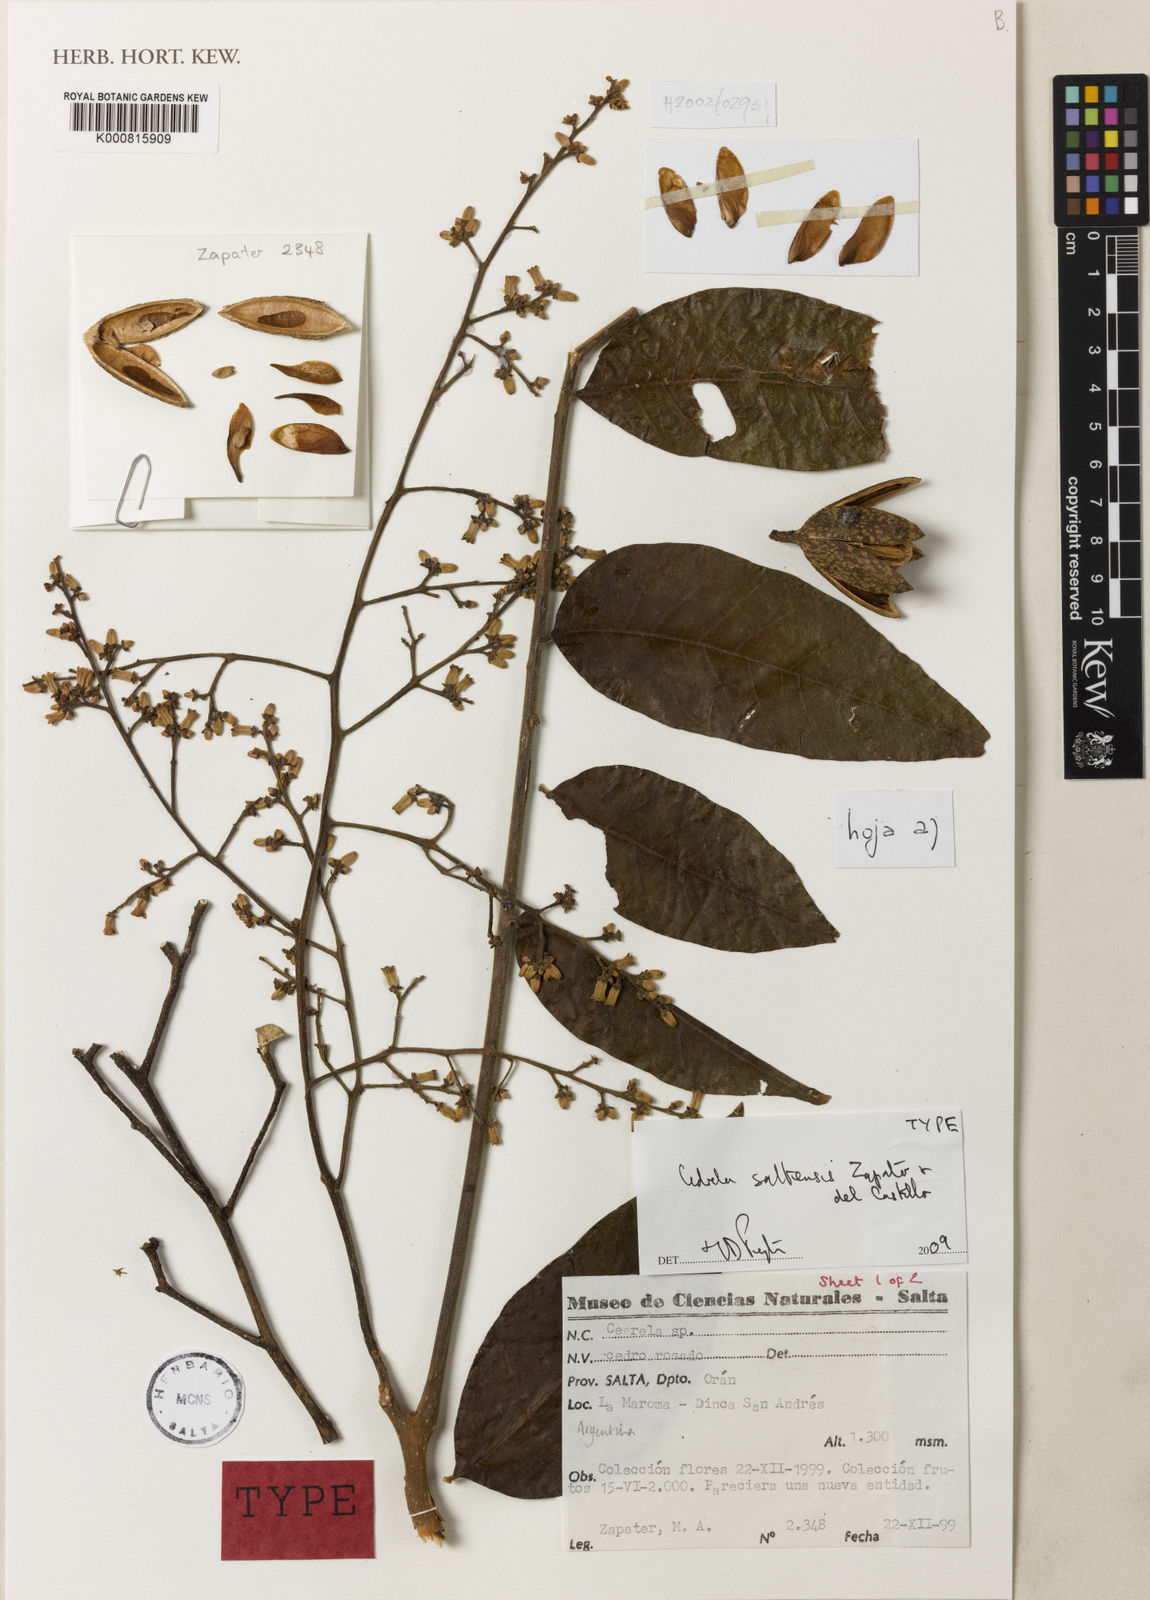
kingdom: Plantae
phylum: Tracheophyta
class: Magnoliopsida
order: Sapindales
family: Meliaceae
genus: Cedrela
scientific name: Cedrela saltensis
